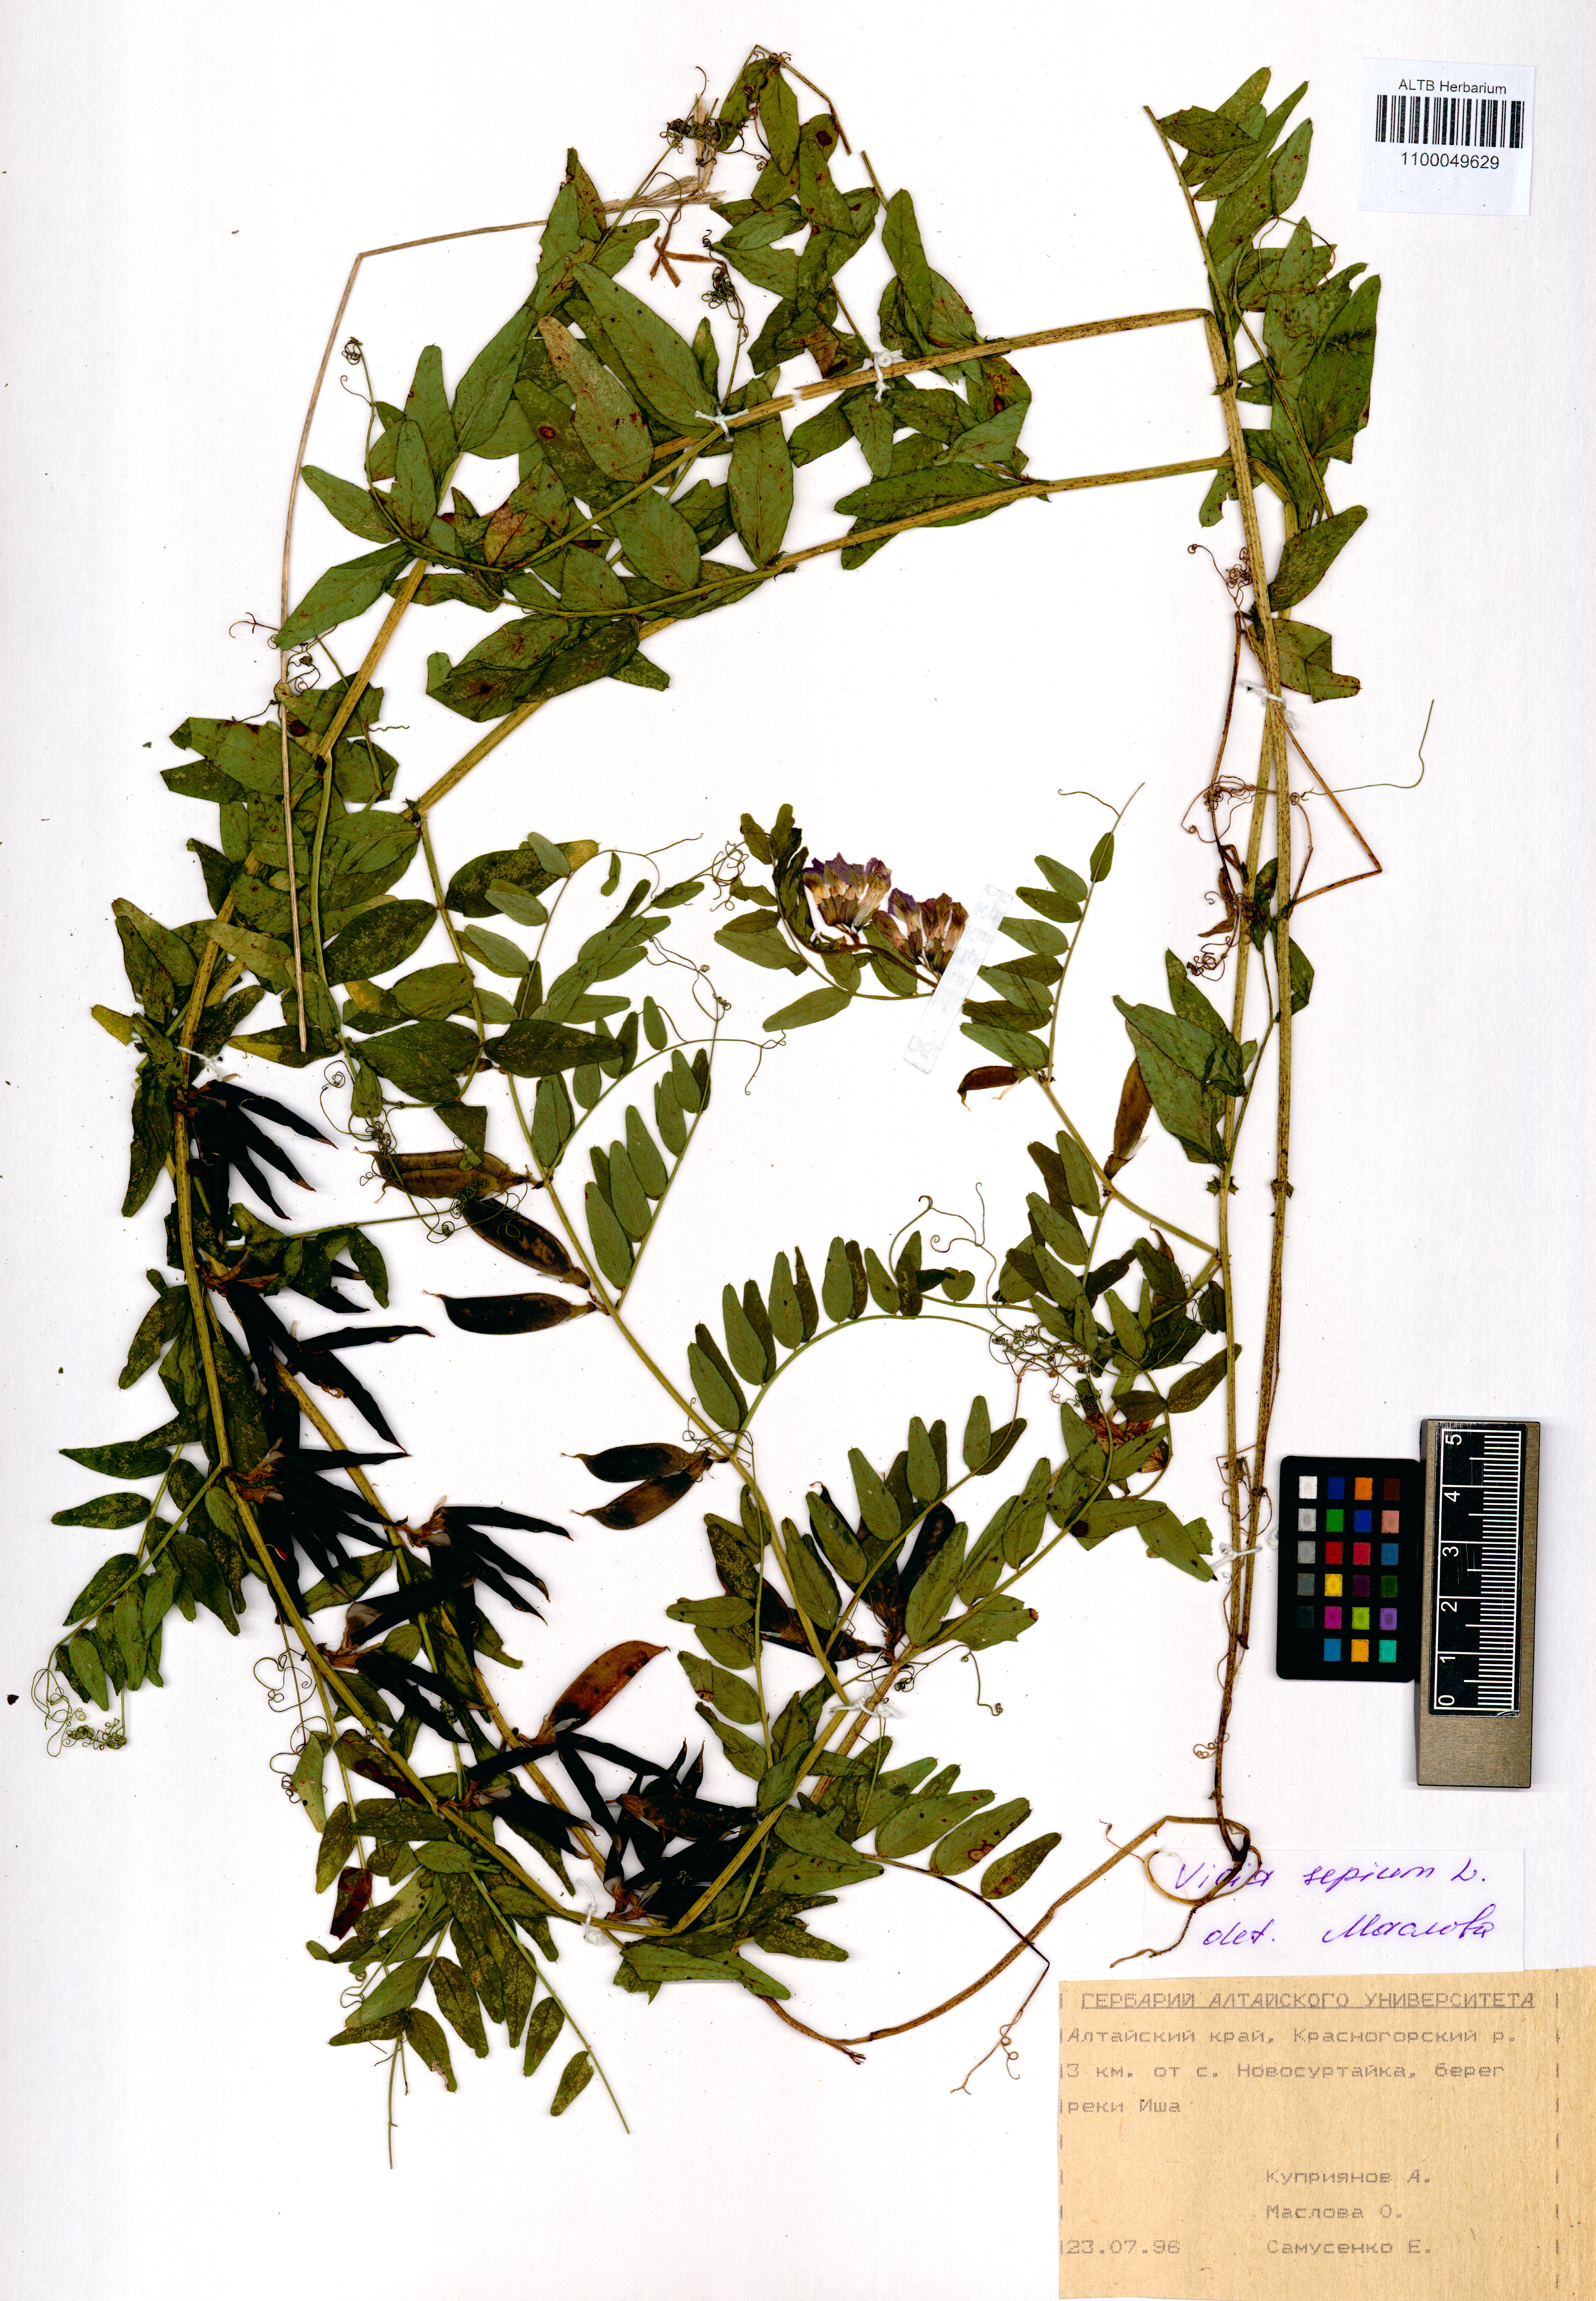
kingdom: Plantae
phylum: Tracheophyta
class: Magnoliopsida
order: Fabales
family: Fabaceae
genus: Vicia
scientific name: Vicia sepium
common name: Bush vetch
